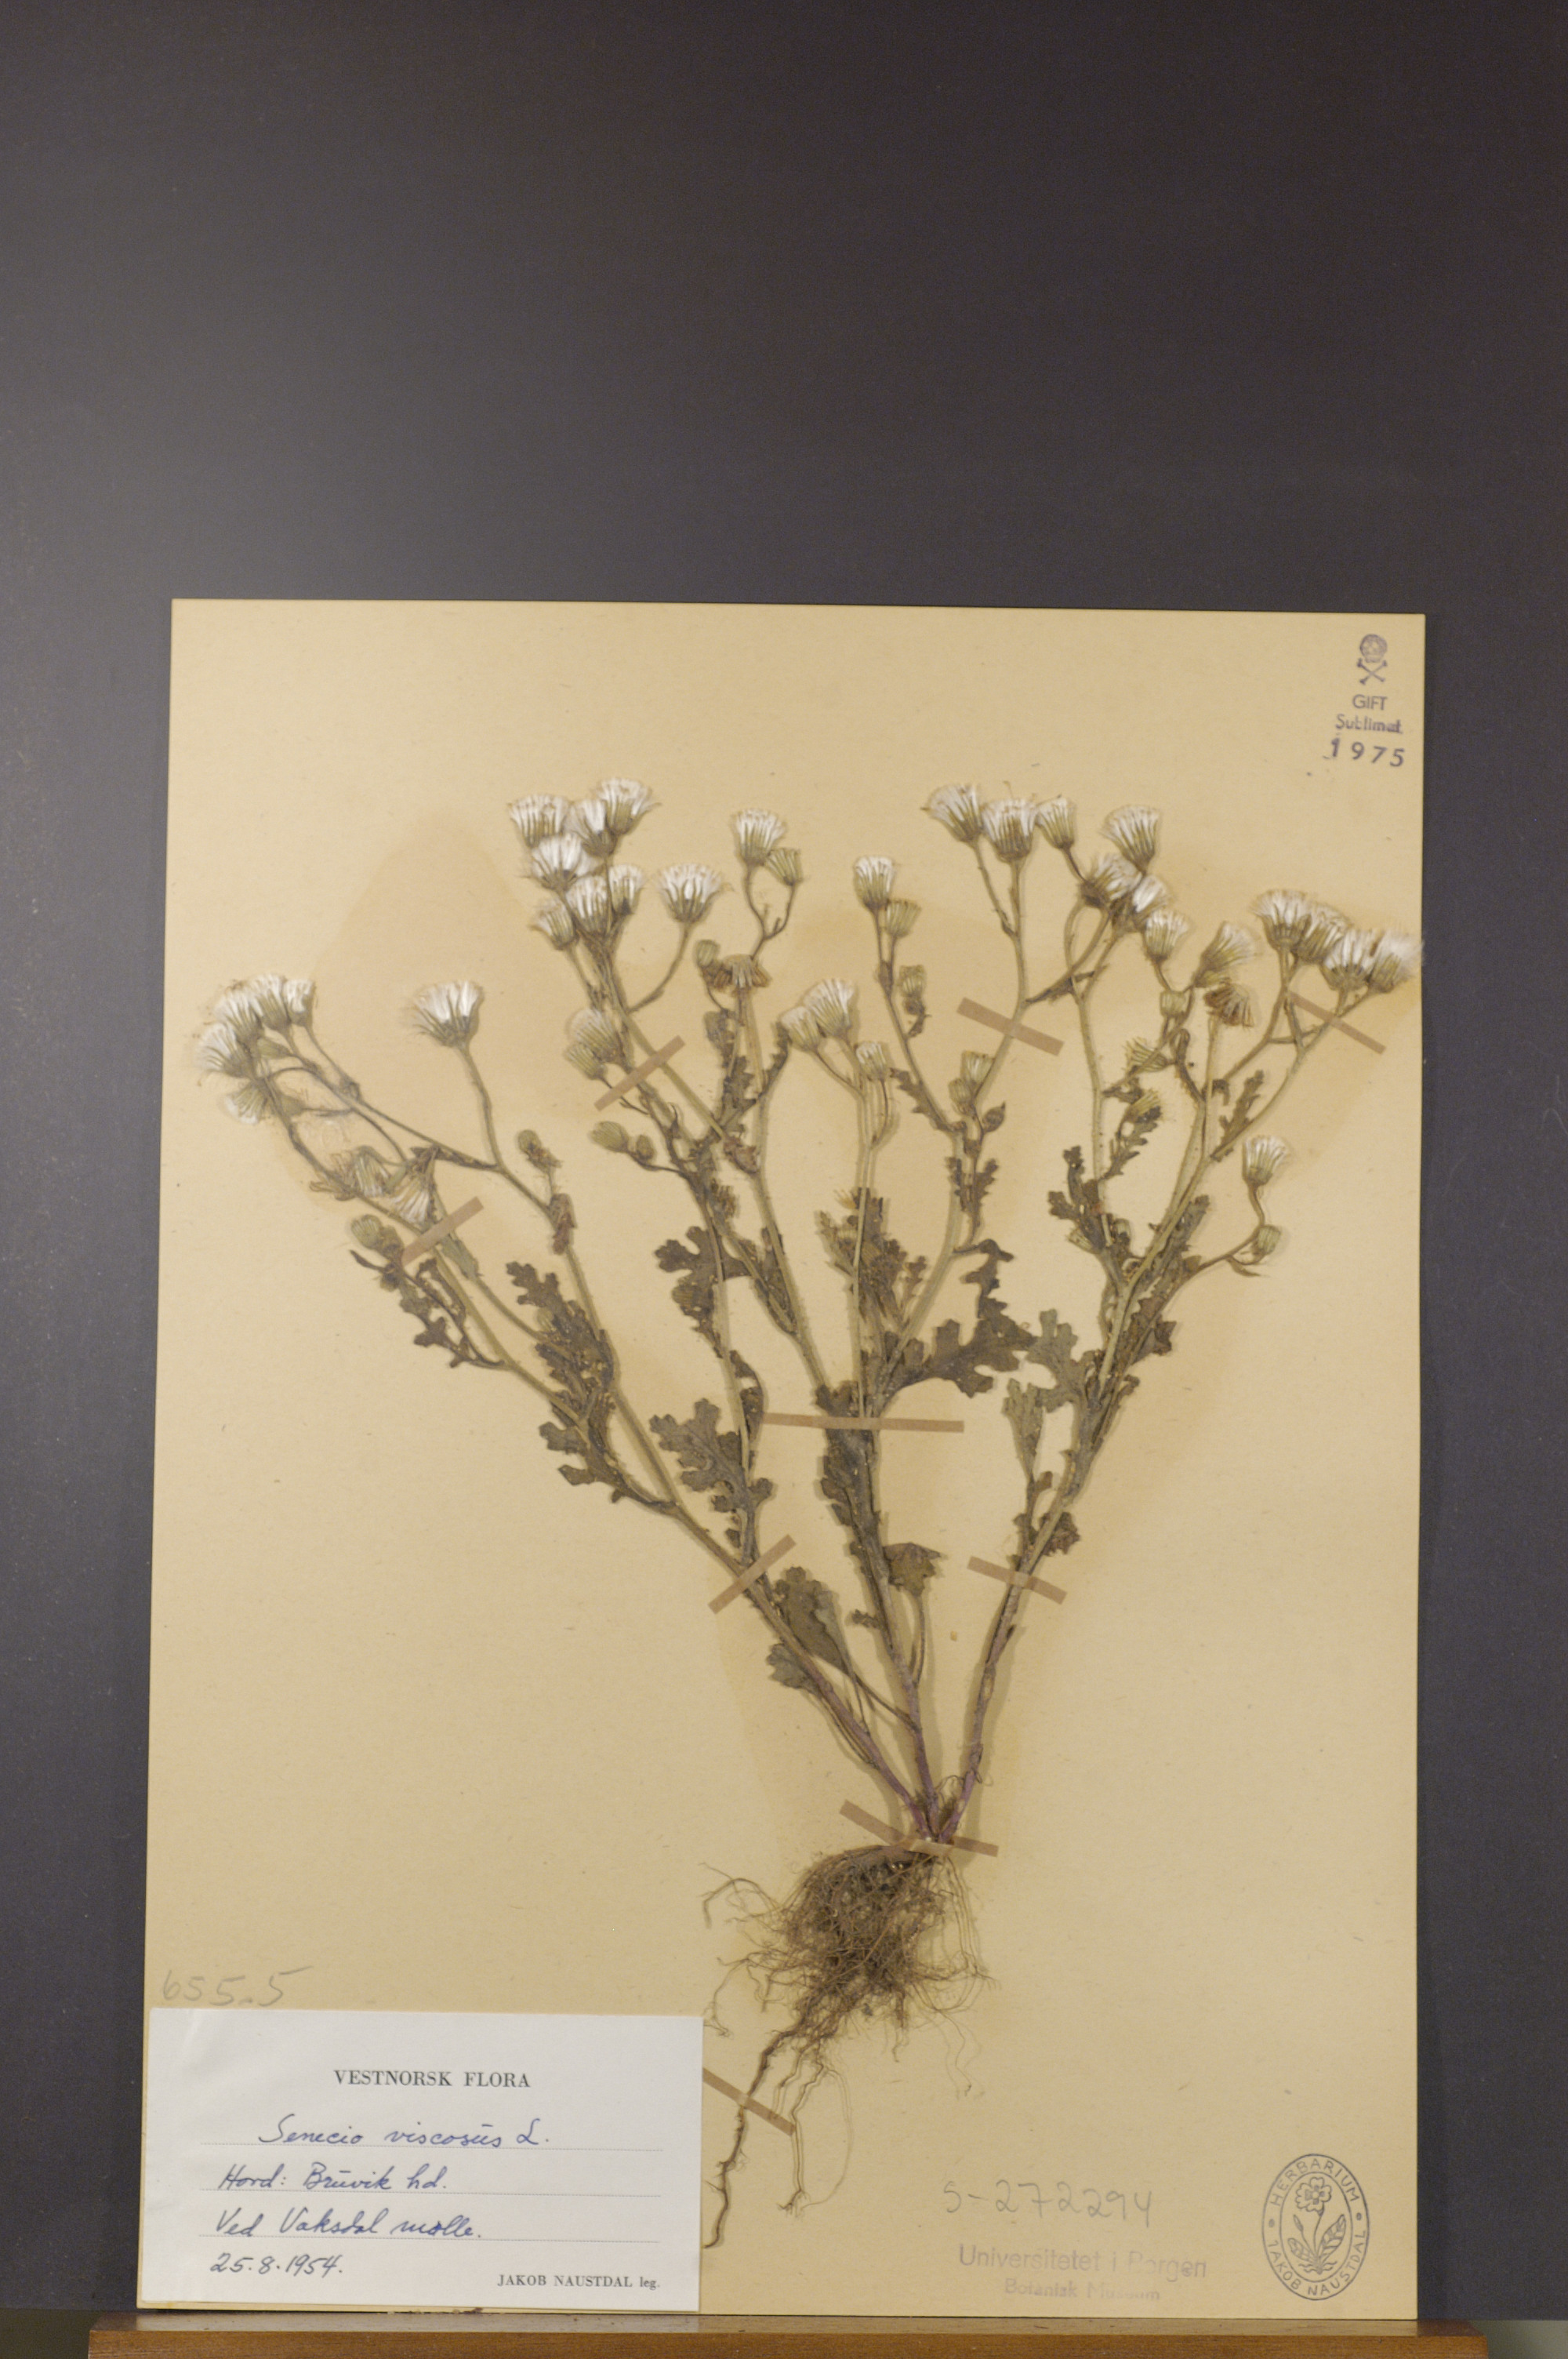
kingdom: Plantae
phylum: Tracheophyta
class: Magnoliopsida
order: Asterales
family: Asteraceae
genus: Senecio
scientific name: Senecio viscosus
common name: Sticky groundsel
